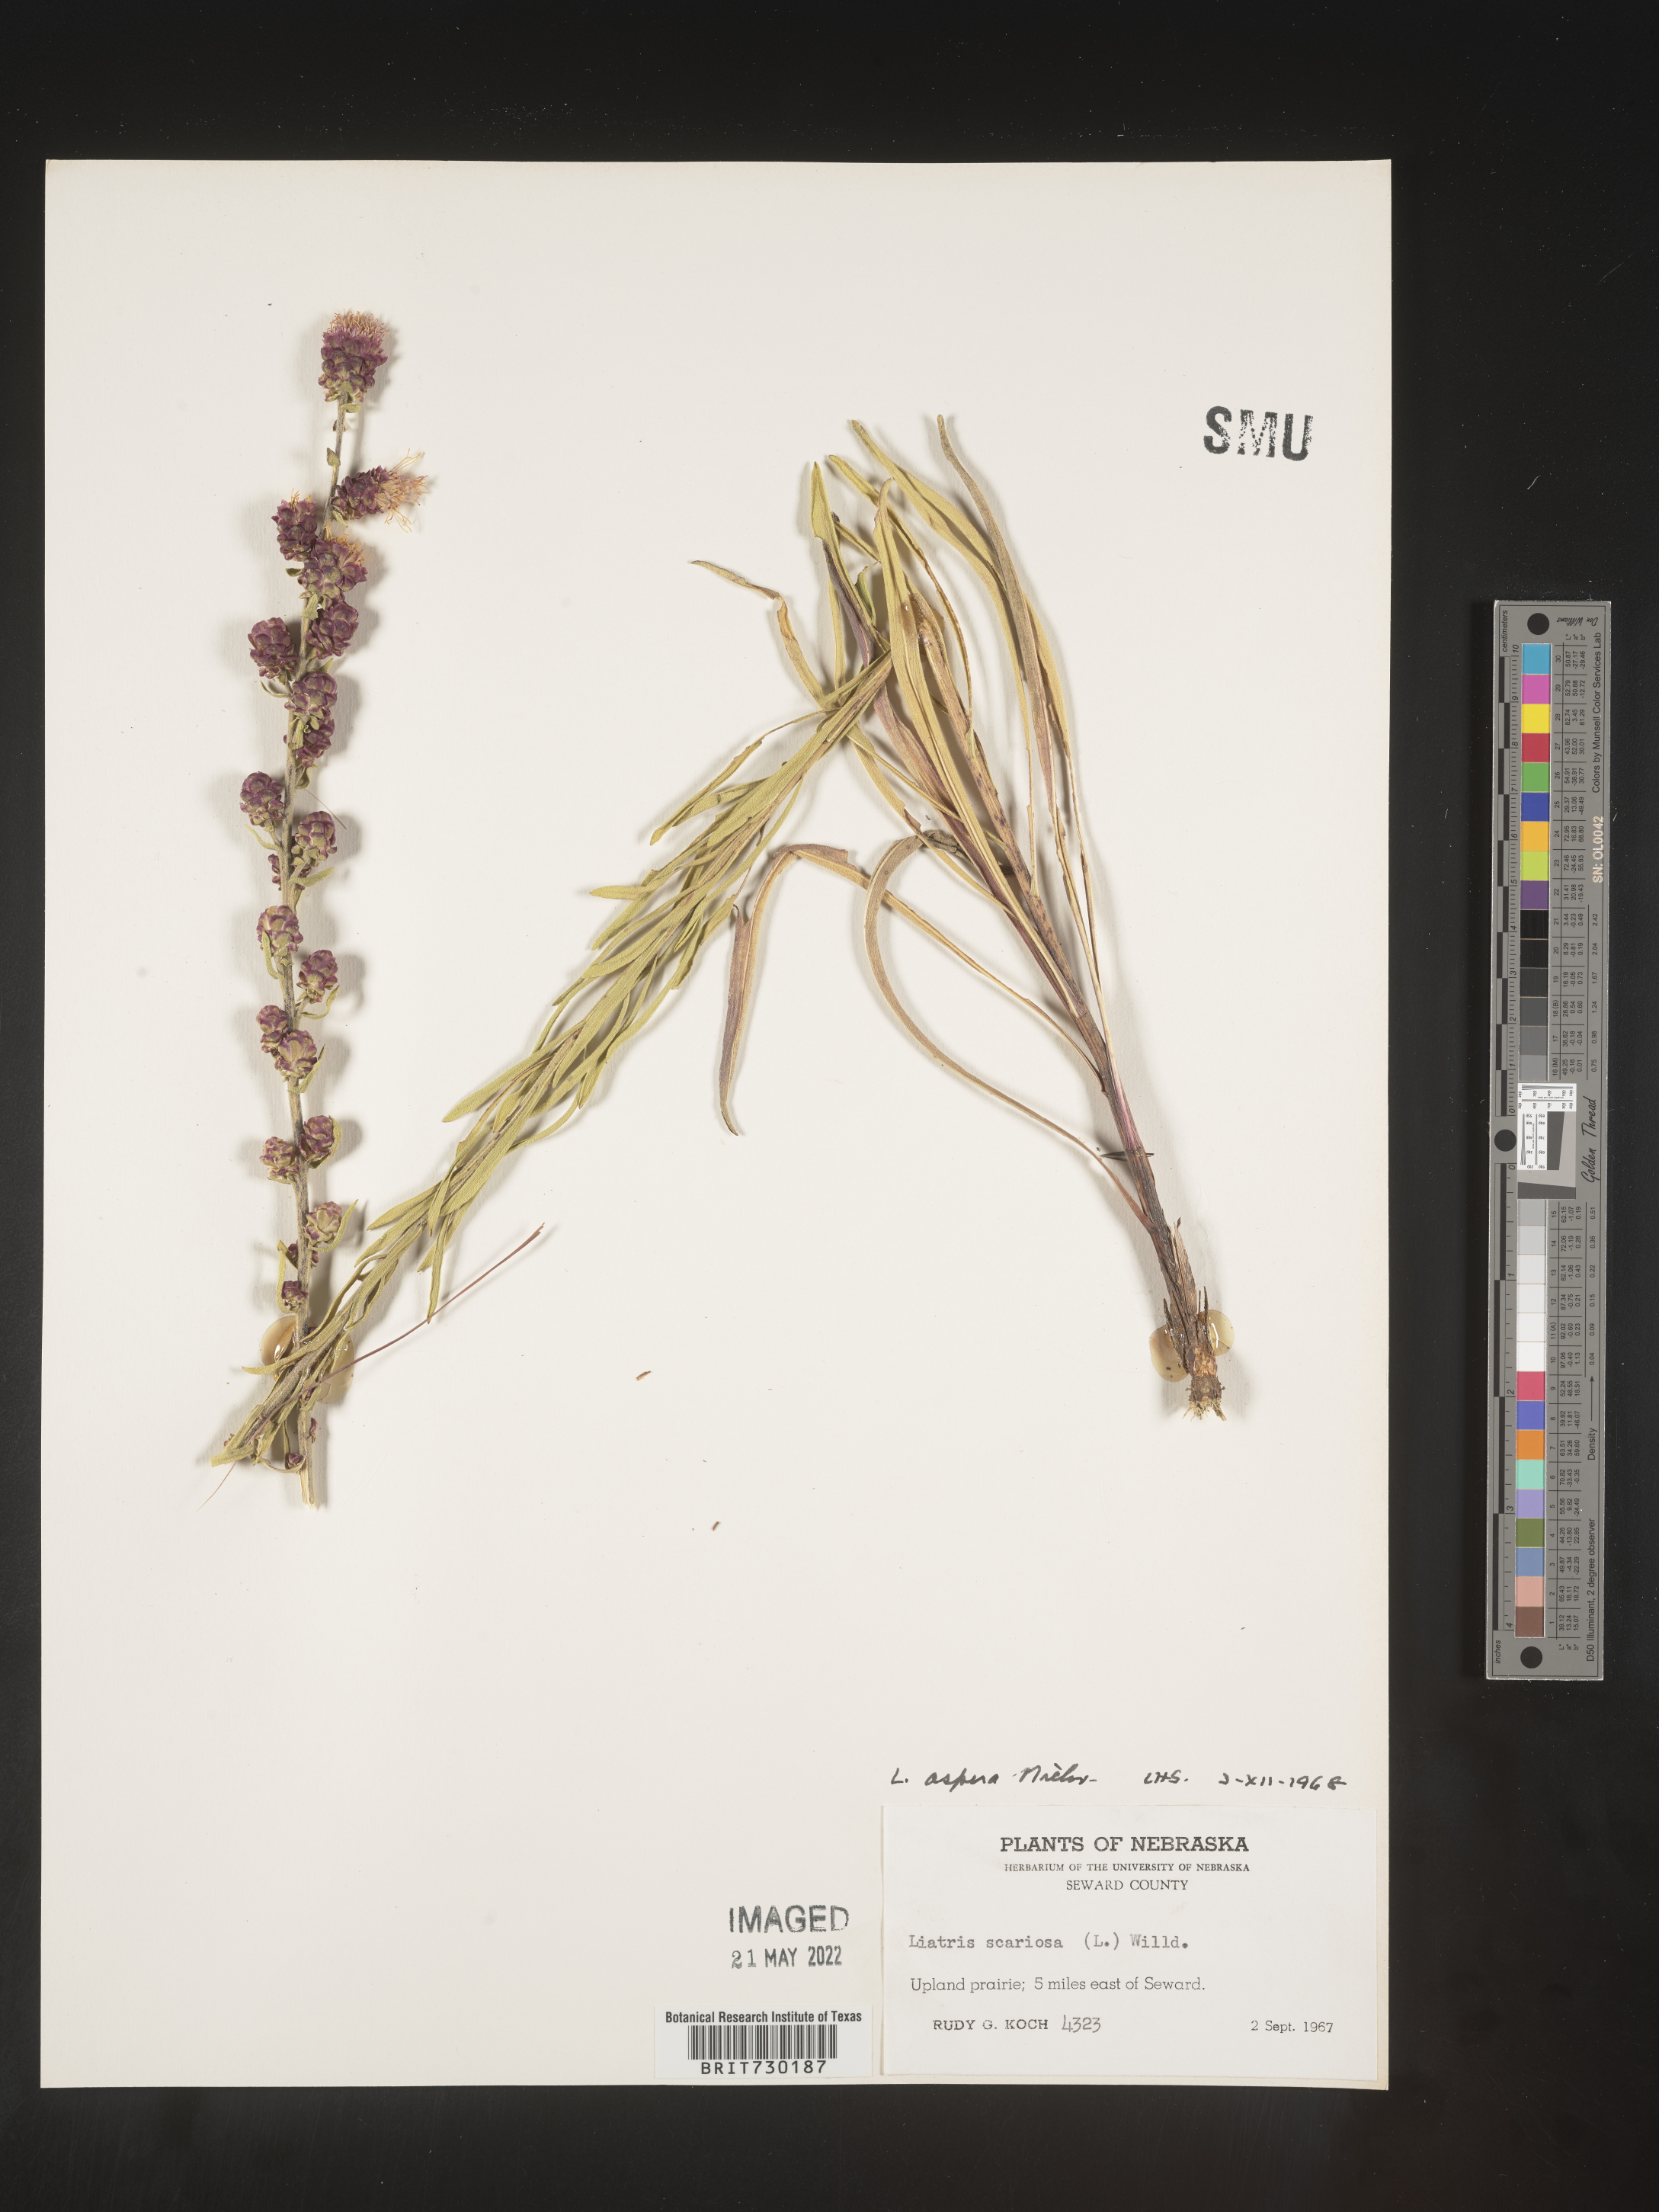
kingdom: Plantae
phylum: Tracheophyta
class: Magnoliopsida
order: Asterales
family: Asteraceae
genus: Liatris
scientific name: Liatris aspera
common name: Lacerate blazing-star
